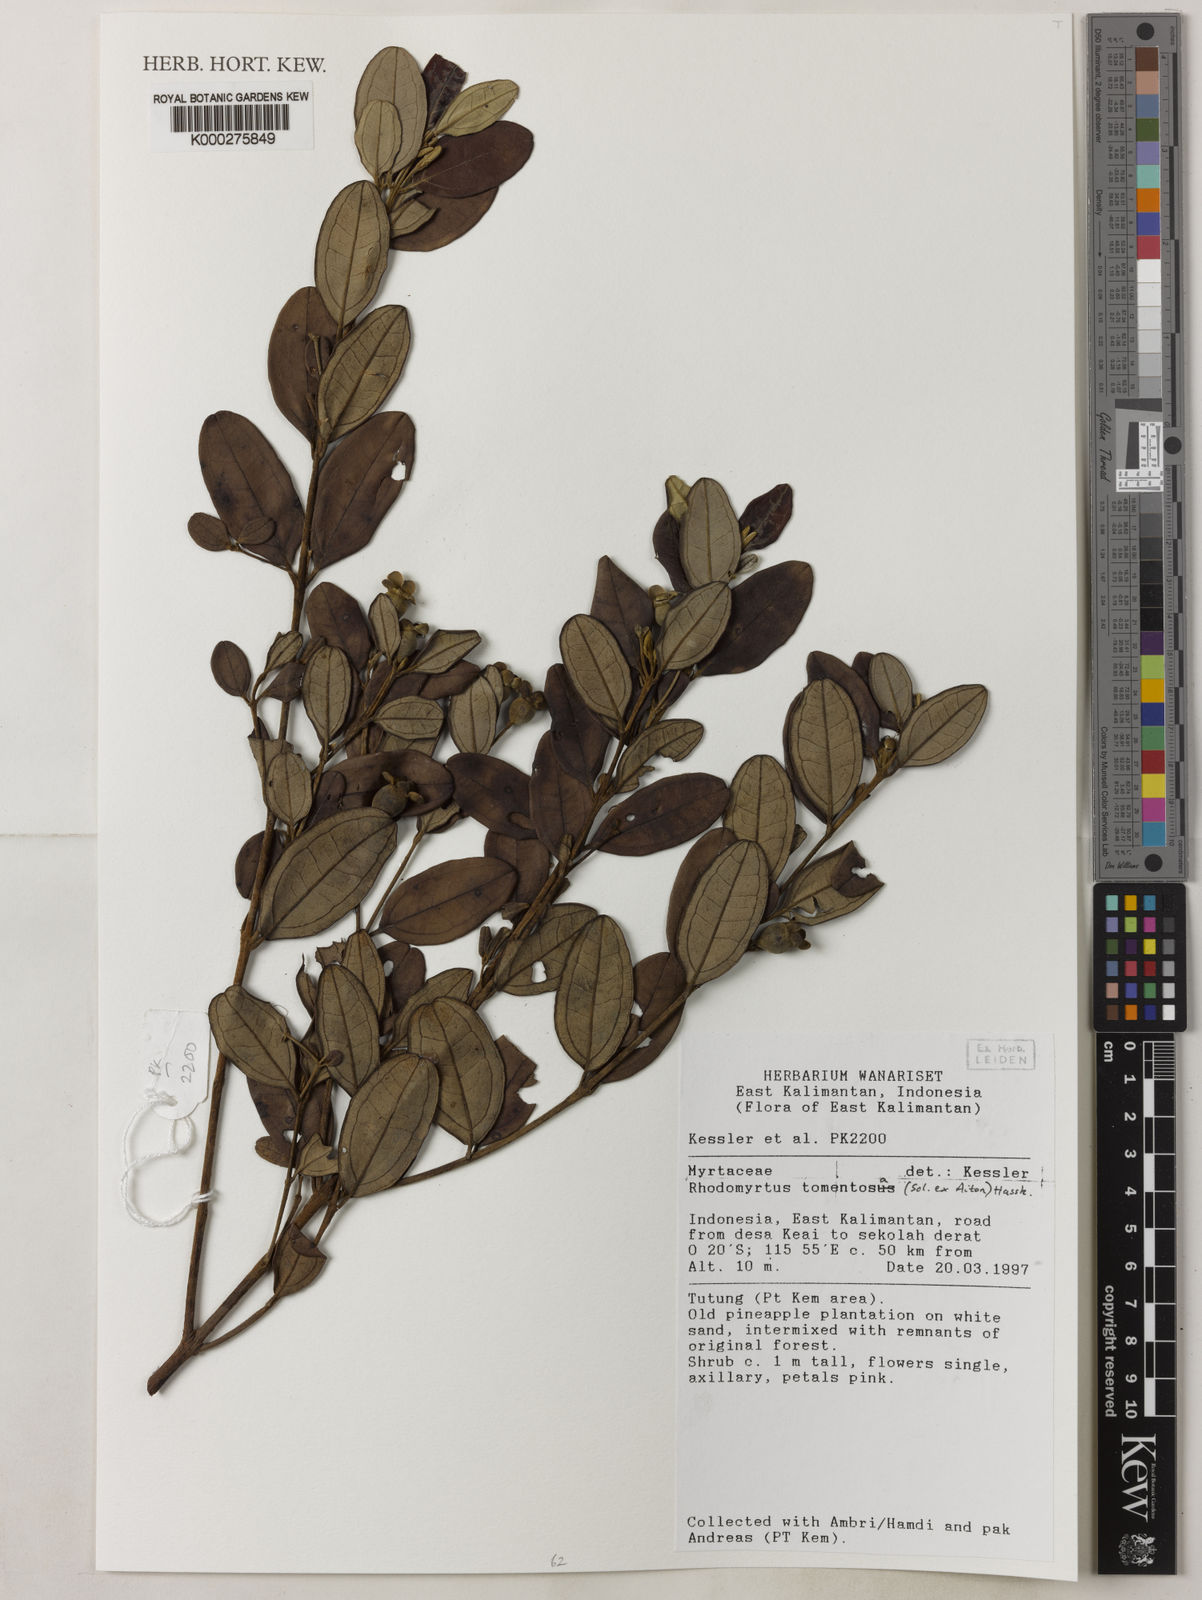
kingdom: Plantae
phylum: Tracheophyta
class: Magnoliopsida
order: Myrtales
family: Myrtaceae
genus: Rhodomyrtus
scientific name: Rhodomyrtus tomentosa
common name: Rose myrtle
